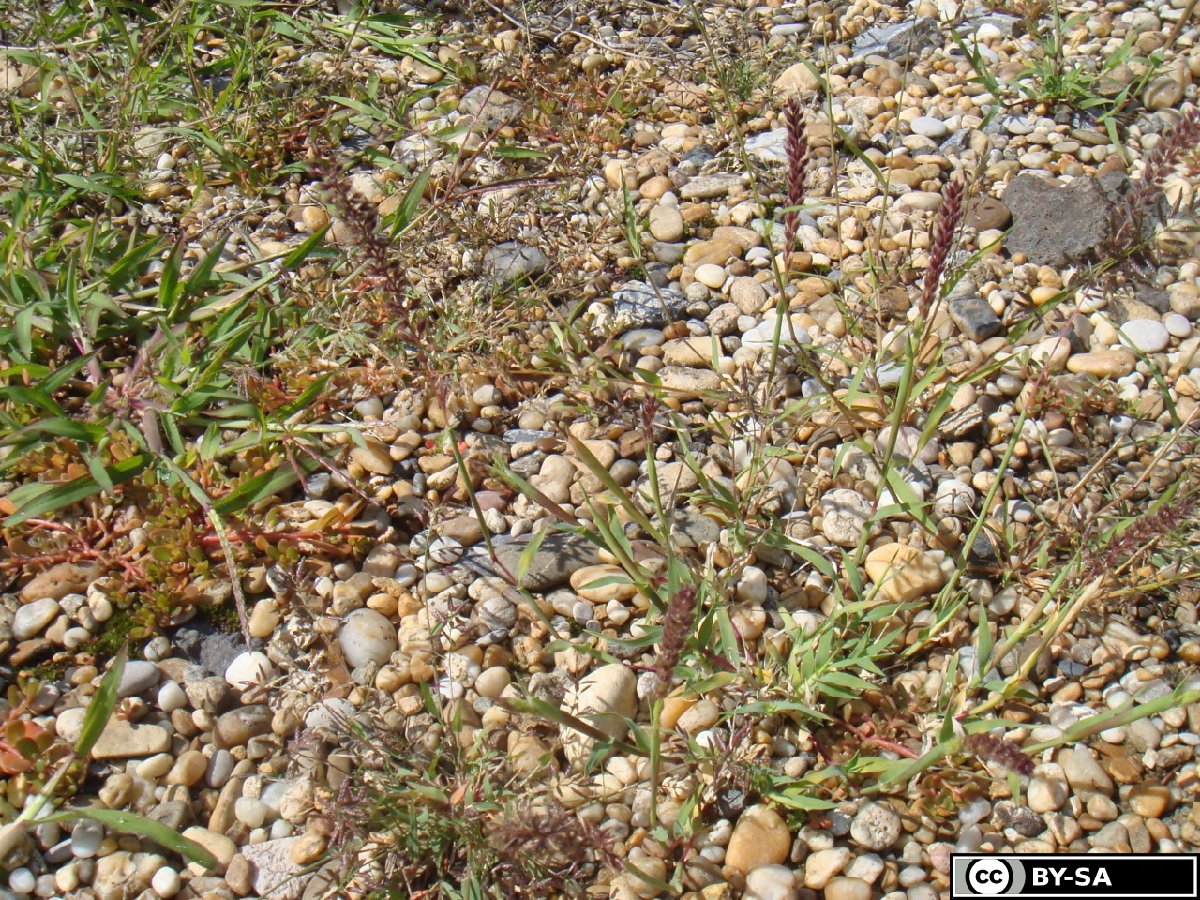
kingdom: Plantae
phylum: Tracheophyta
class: Liliopsida
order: Poales
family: Poaceae
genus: Tragus
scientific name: Tragus racemosus
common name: European bur-grass
